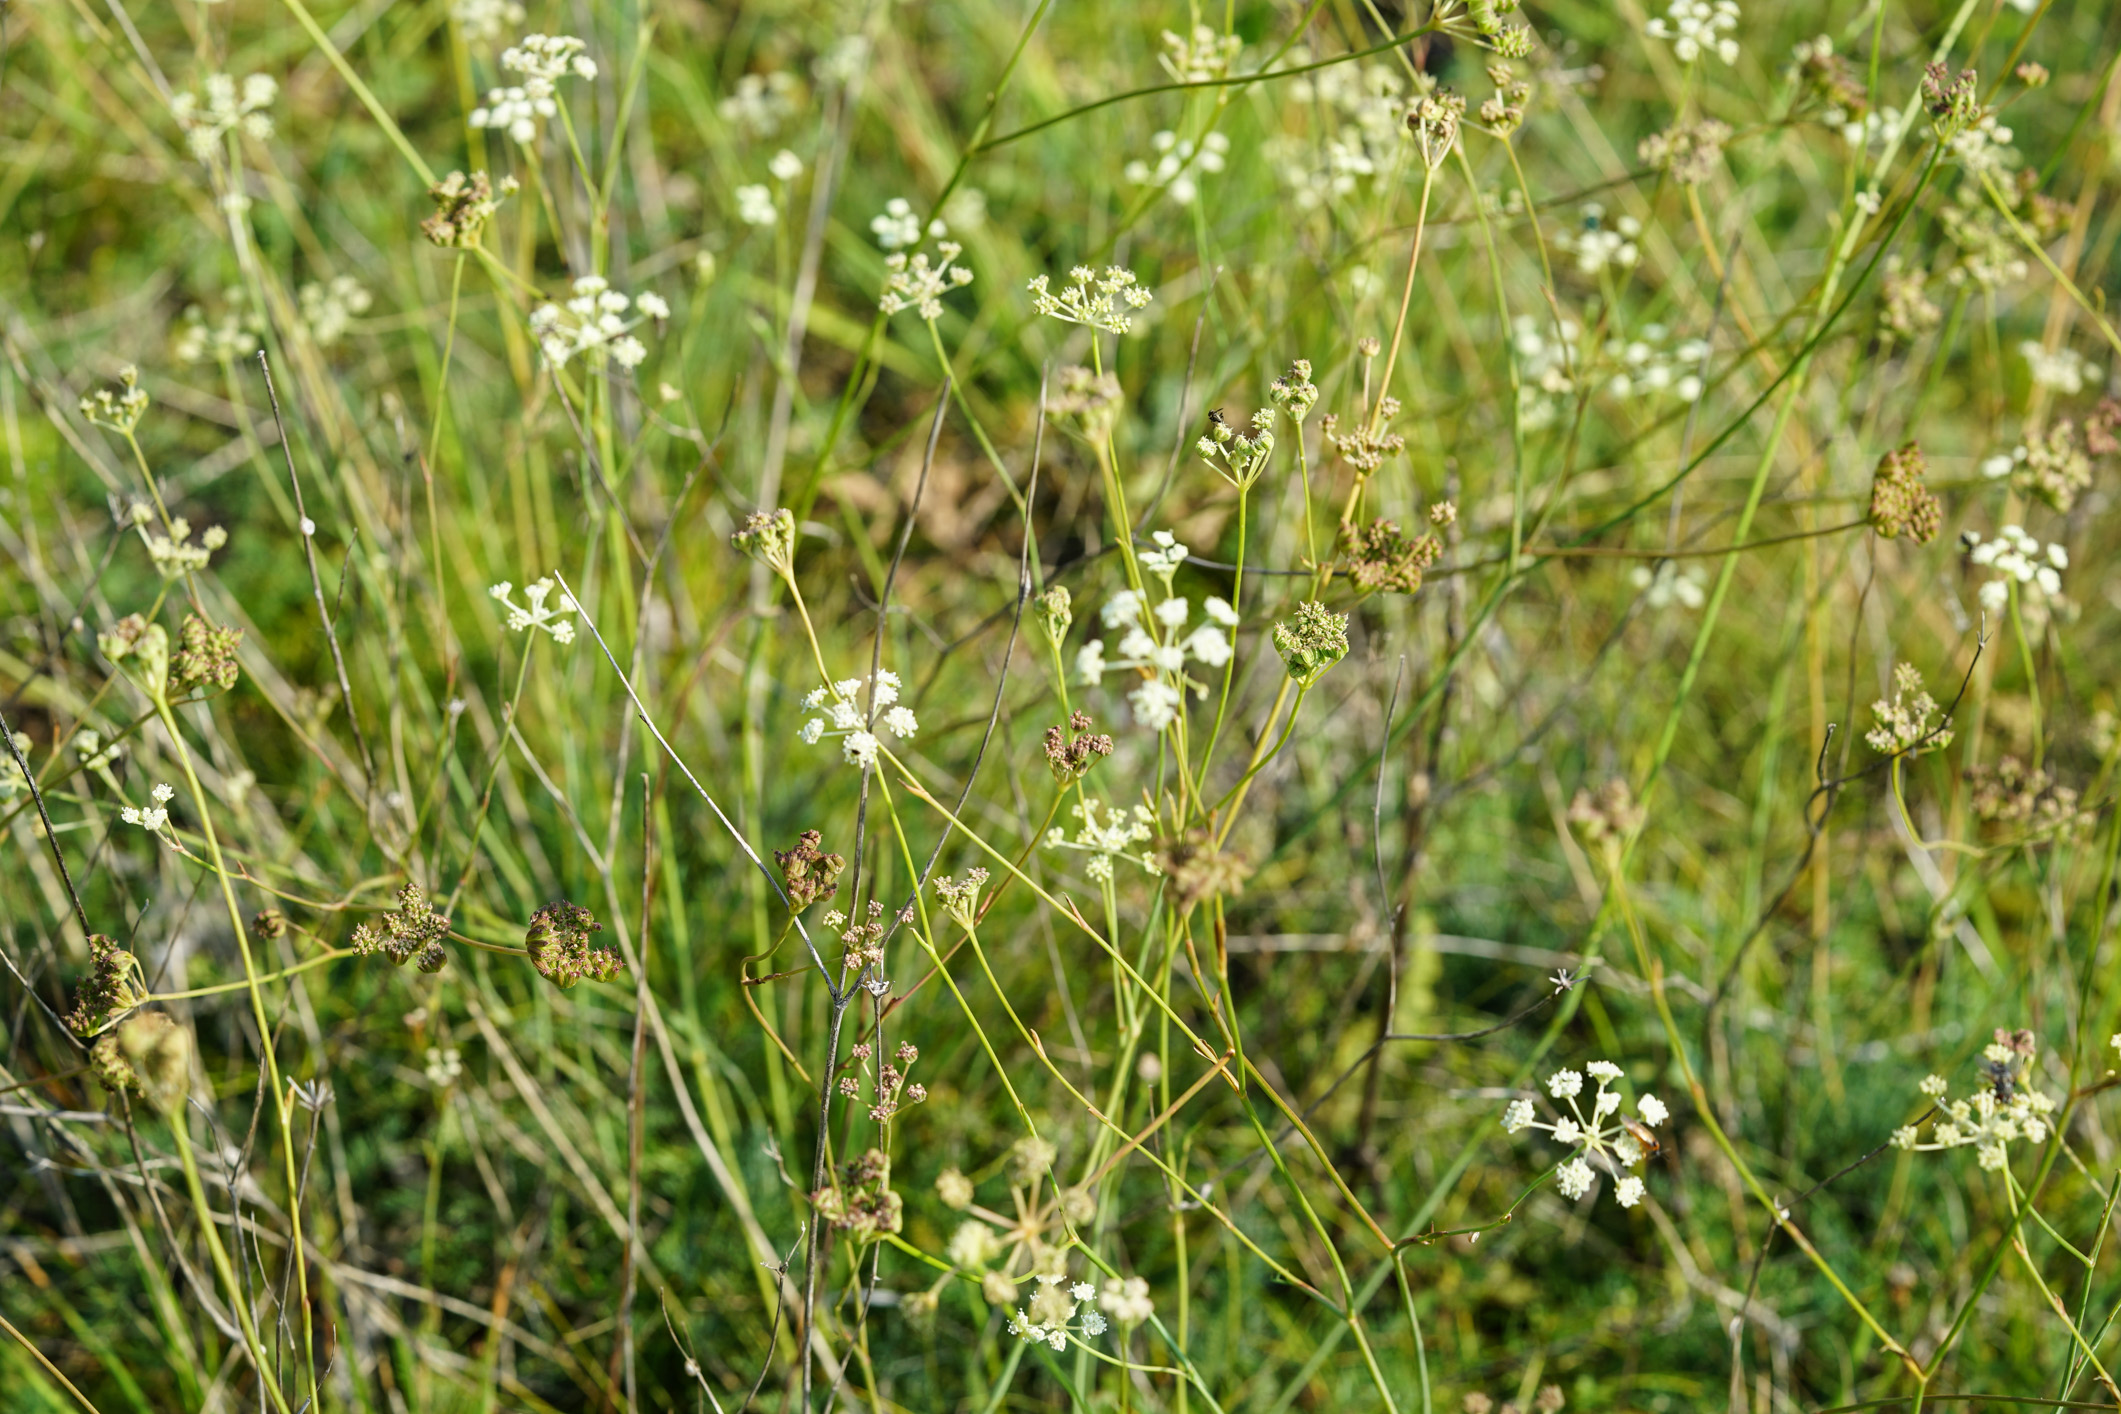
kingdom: Plantae
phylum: Tracheophyta
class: Magnoliopsida
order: Apiales
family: Apiaceae
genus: Hippomarathrum
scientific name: Hippomarathrum vulgare
